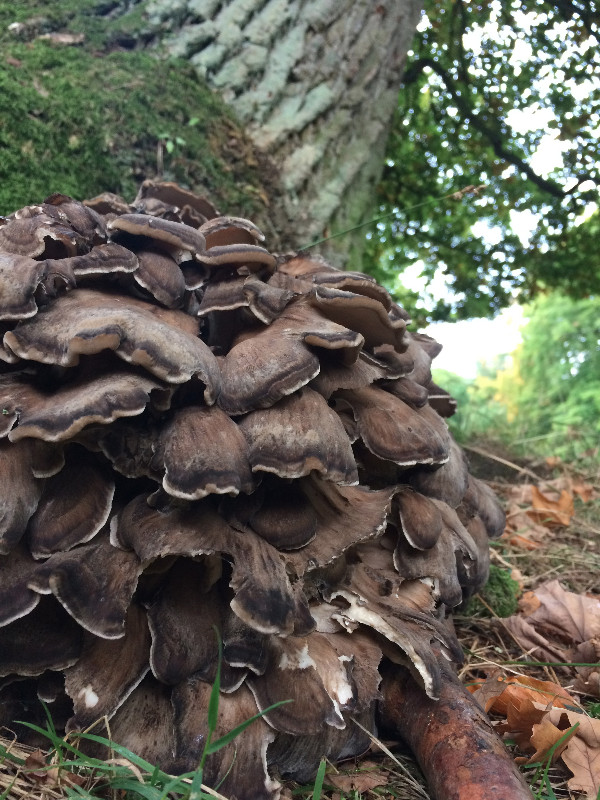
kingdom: Fungi
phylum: Basidiomycota
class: Agaricomycetes
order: Polyporales
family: Grifolaceae
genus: Grifola
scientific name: Grifola frondosa
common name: tueporesvamp
